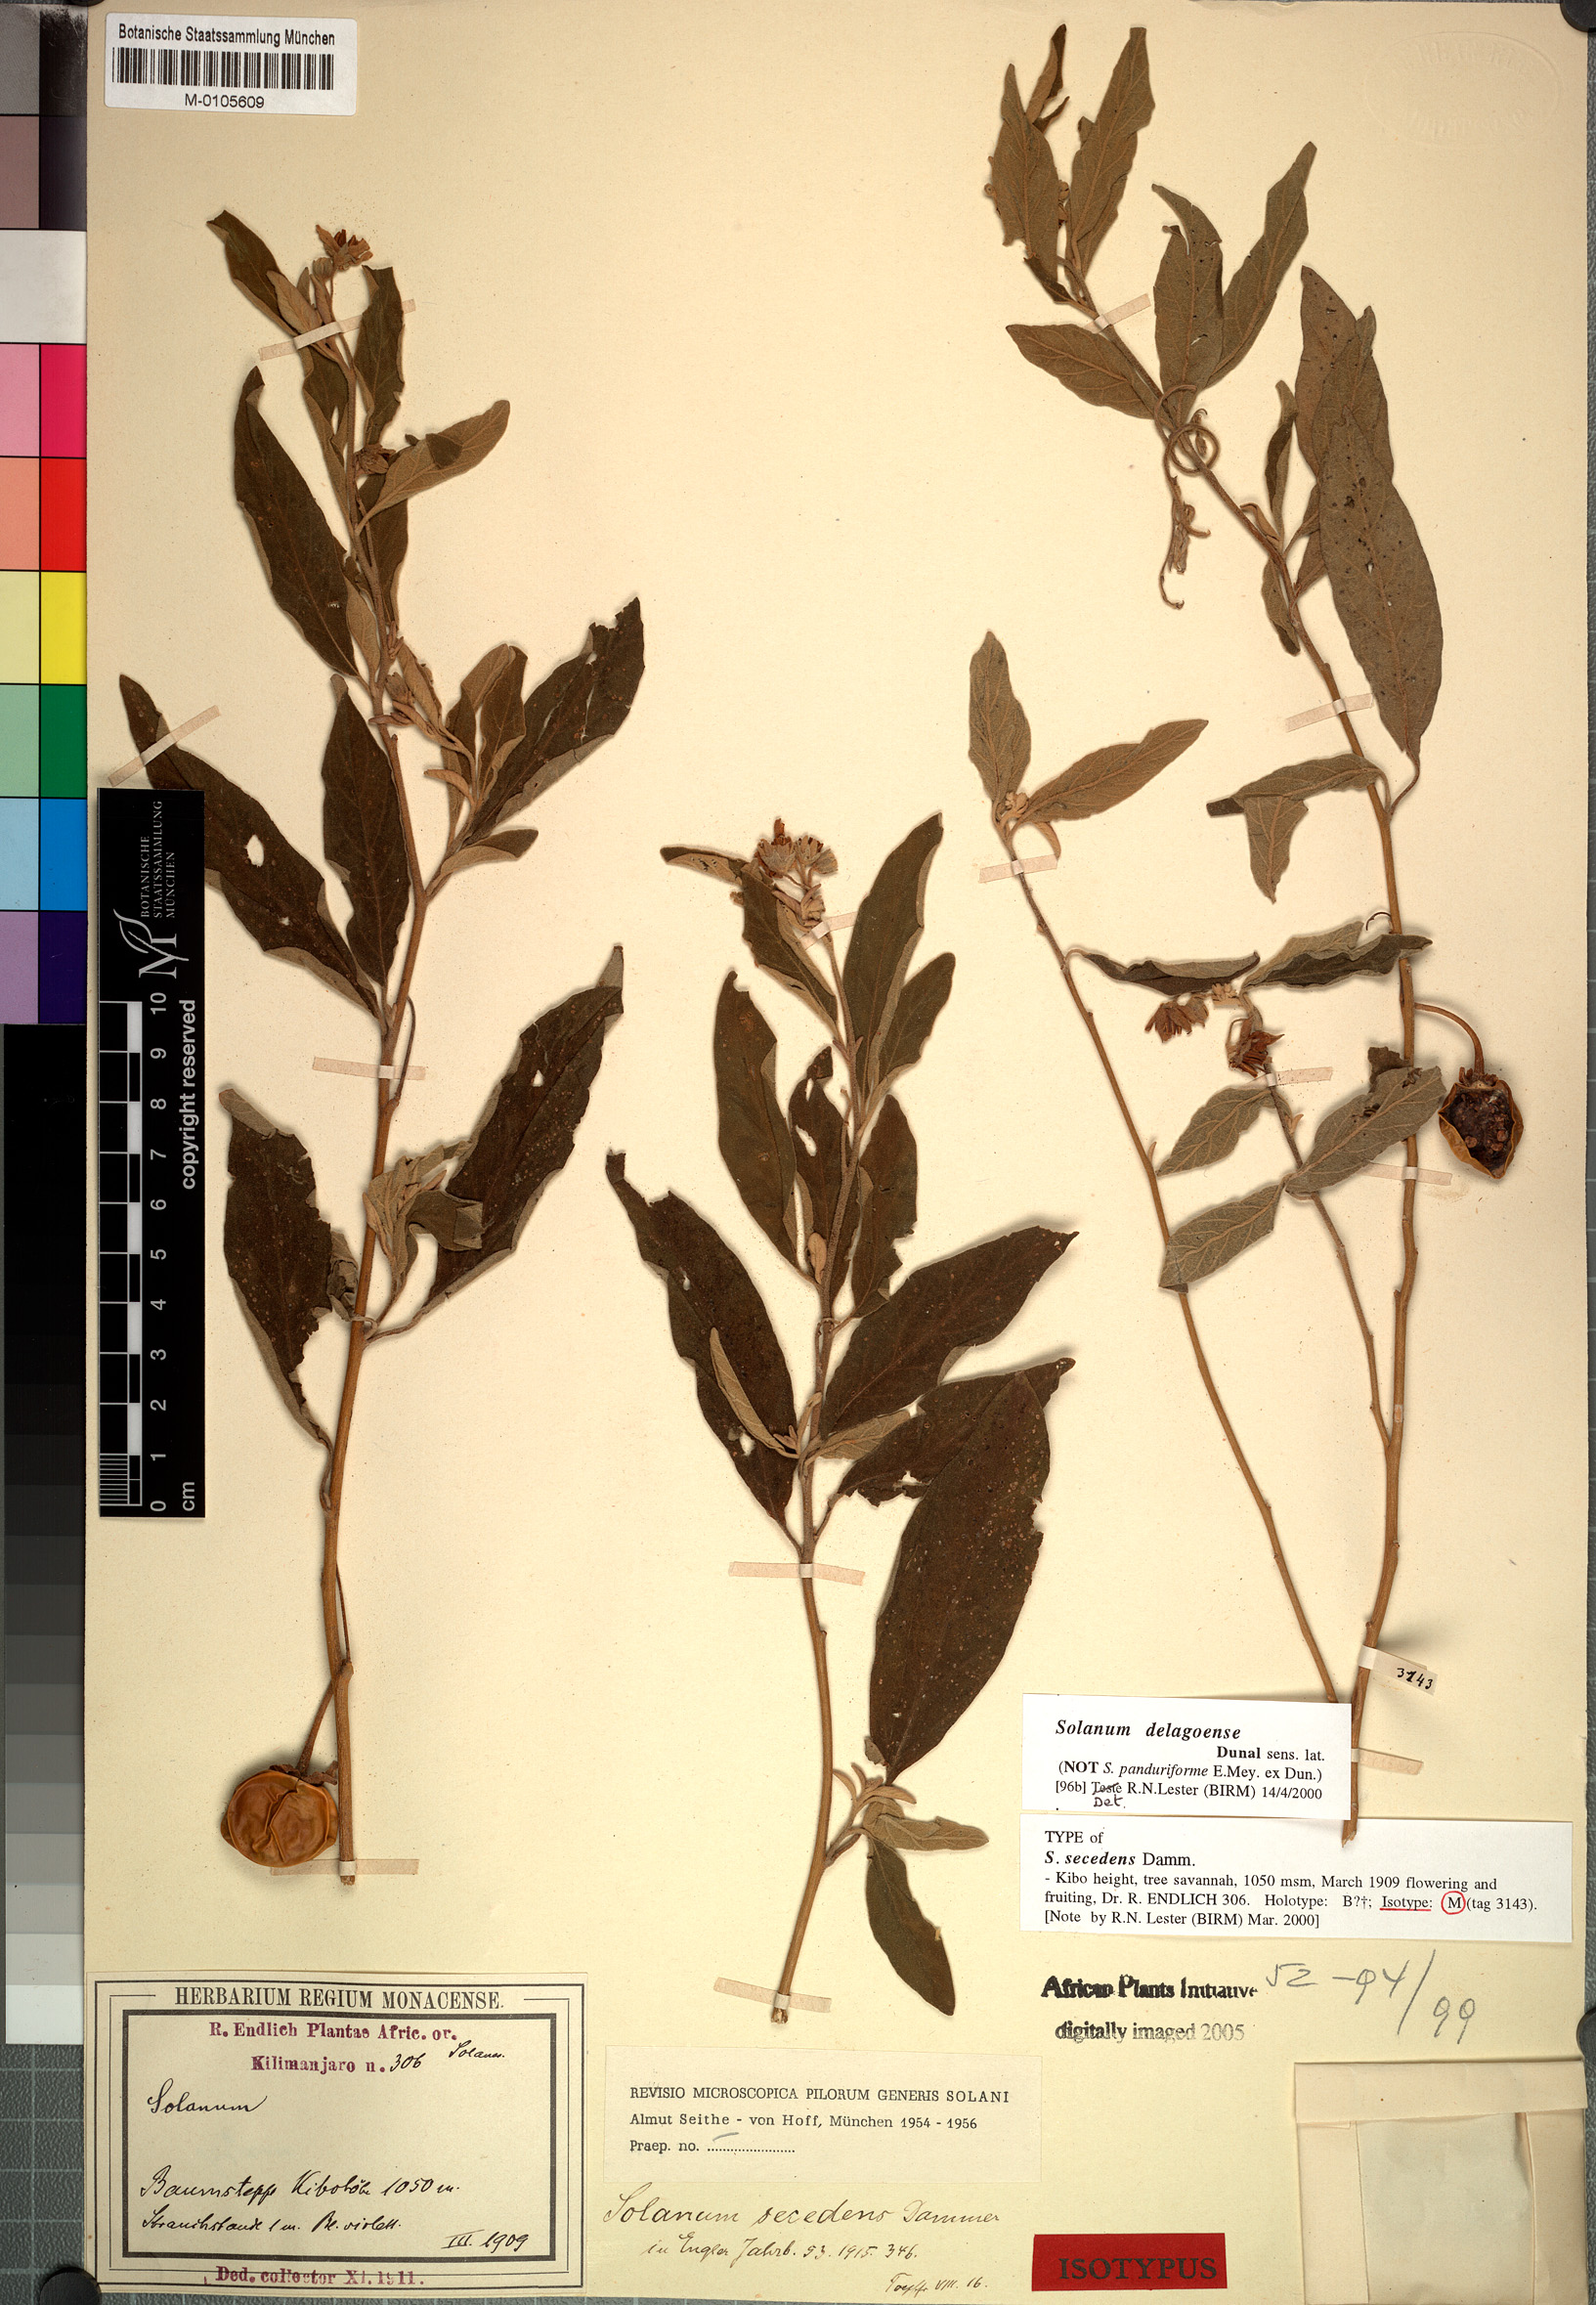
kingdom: Plantae
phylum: Tracheophyta
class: Magnoliopsida
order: Solanales
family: Solanaceae
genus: Solanum
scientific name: Solanum campylacanthum
